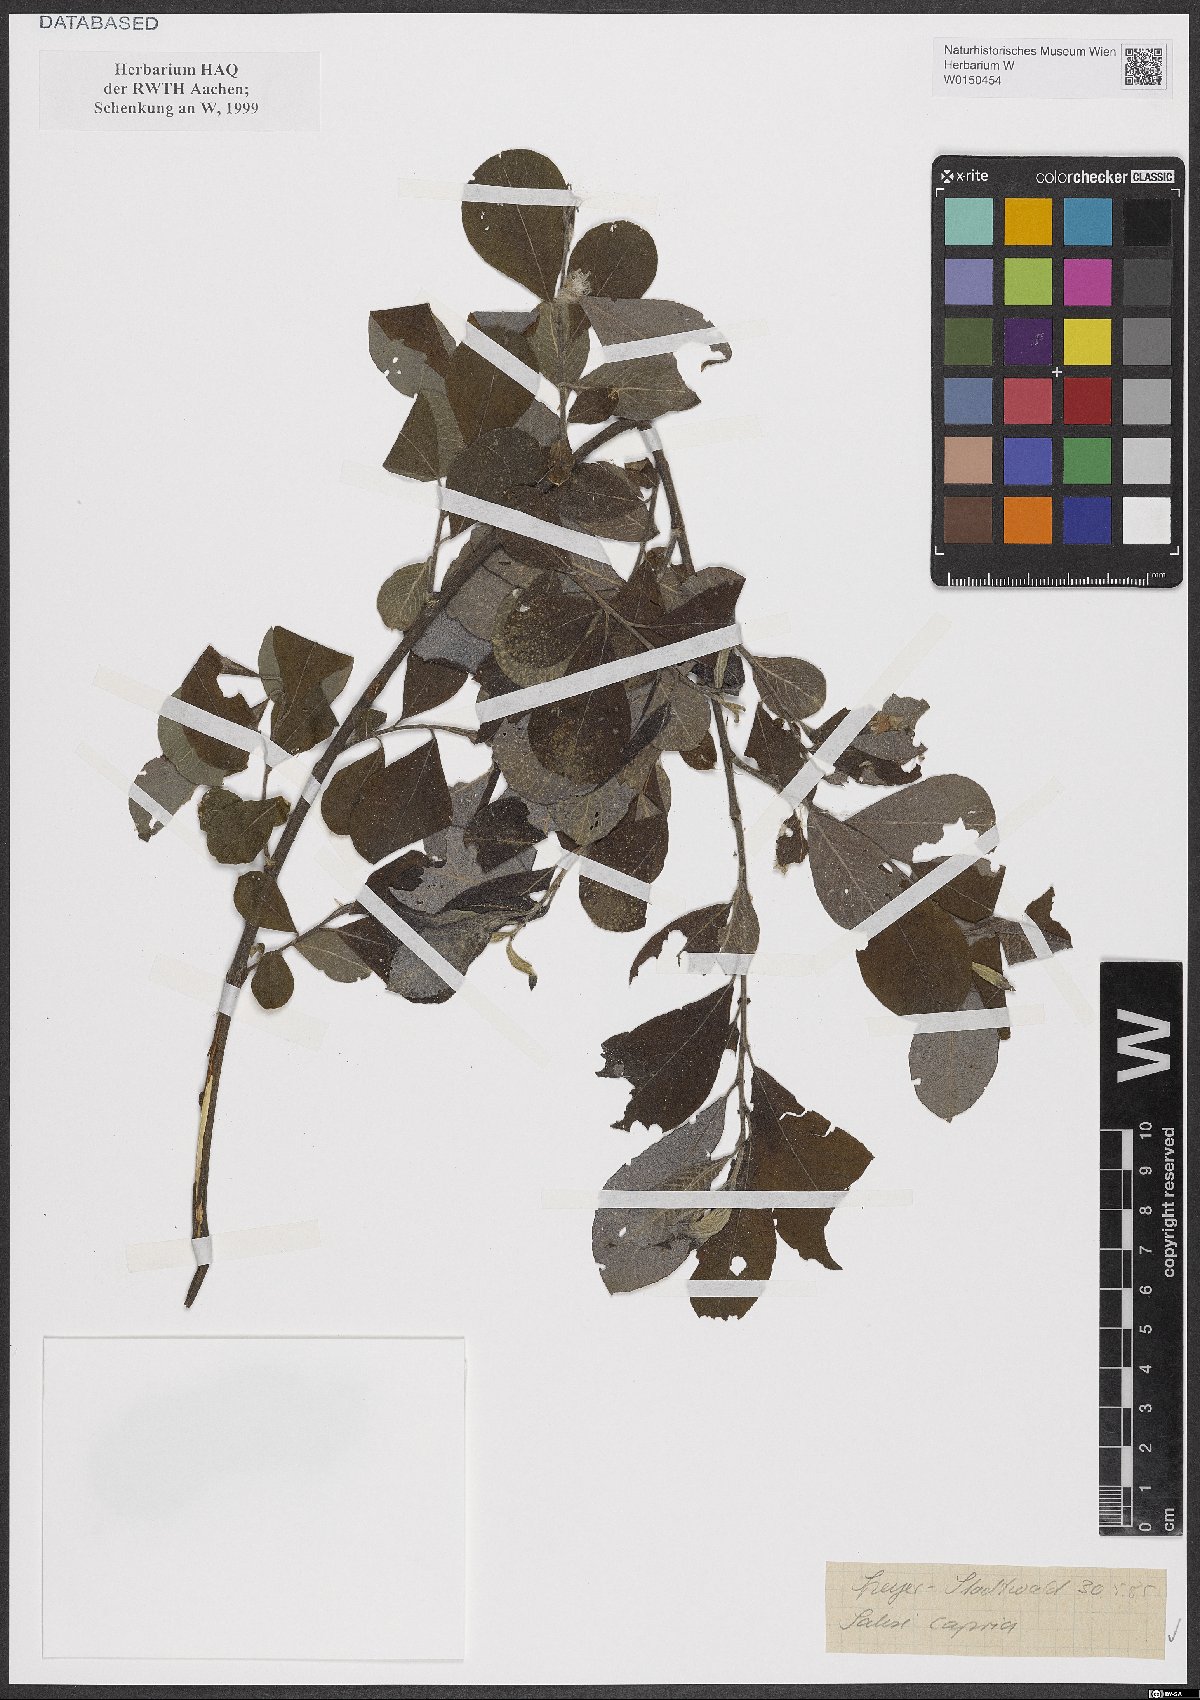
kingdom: Plantae
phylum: Tracheophyta
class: Magnoliopsida
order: Malpighiales
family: Salicaceae
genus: Salix
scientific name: Salix caprea
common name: Goat willow
